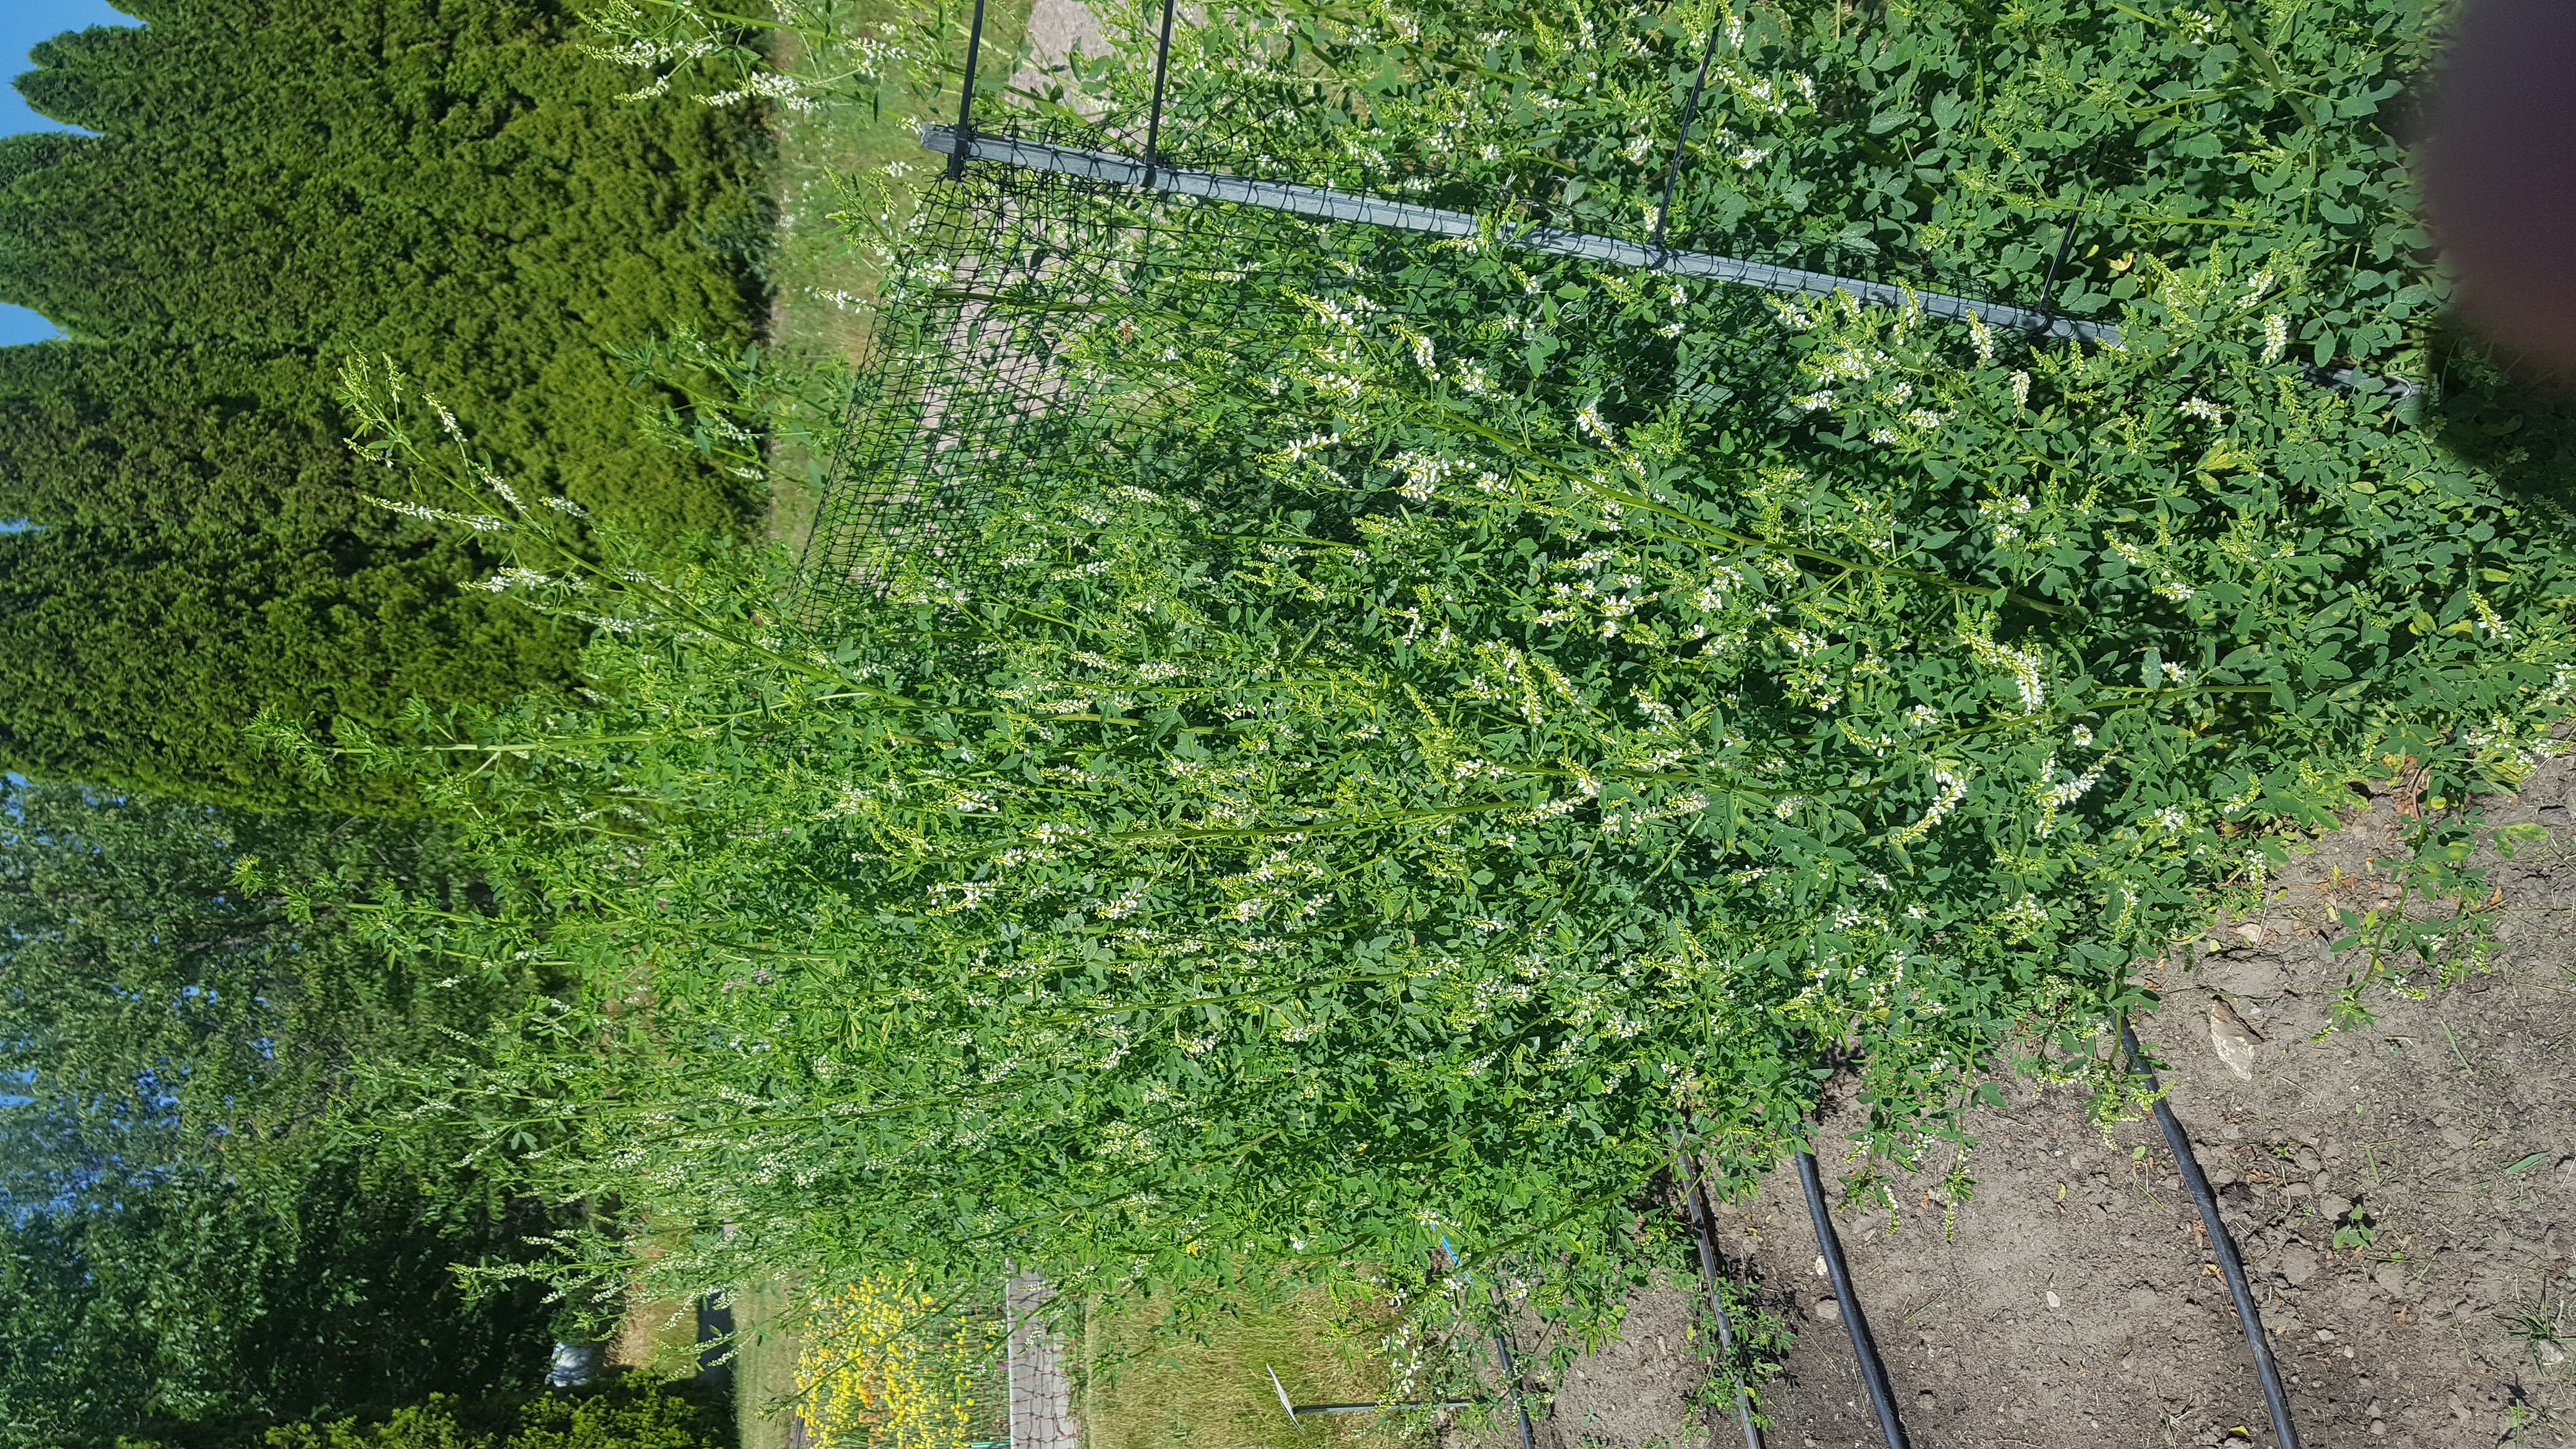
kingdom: Plantae
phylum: Tracheophyta
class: Magnoliopsida
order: Fabales
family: Fabaceae
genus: Melilotus
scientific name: Melilotus albus
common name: White melilot
